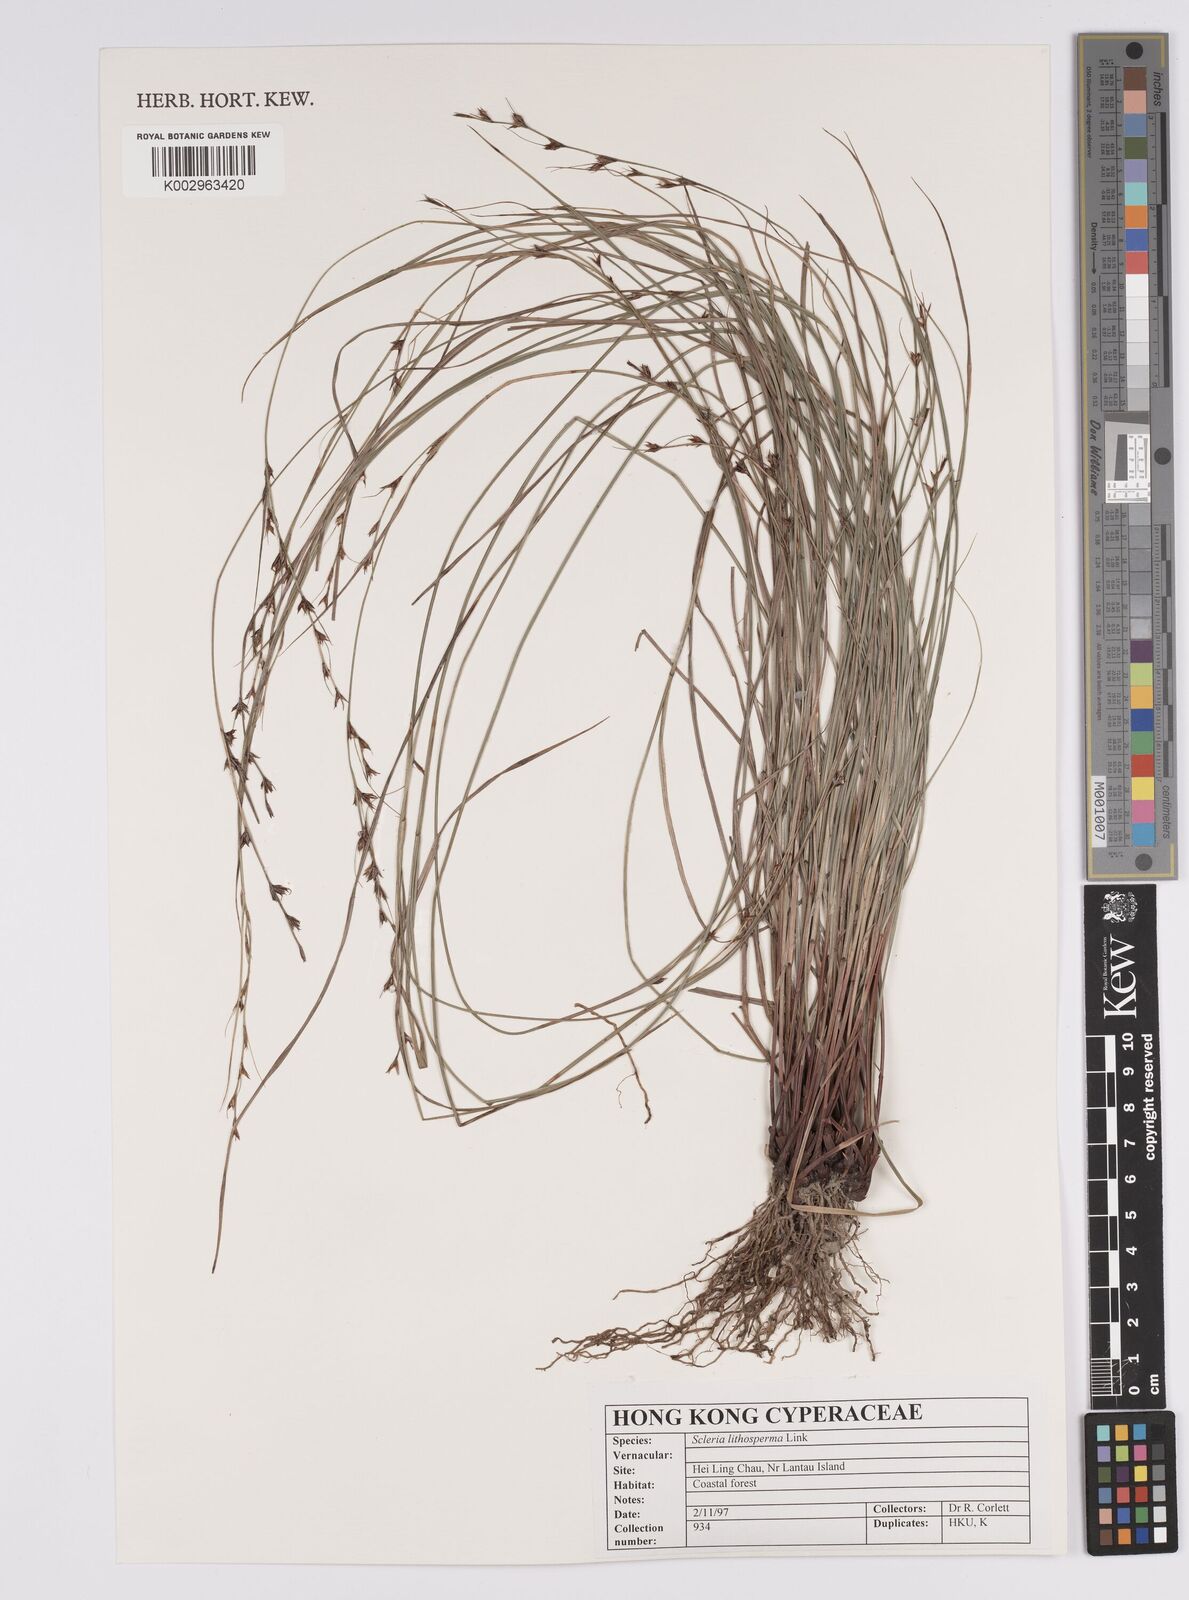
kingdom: Plantae
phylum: Tracheophyta
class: Liliopsida
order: Poales
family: Cyperaceae
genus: Scleria
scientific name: Scleria lithosperma
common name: Florida keys nut-rush
